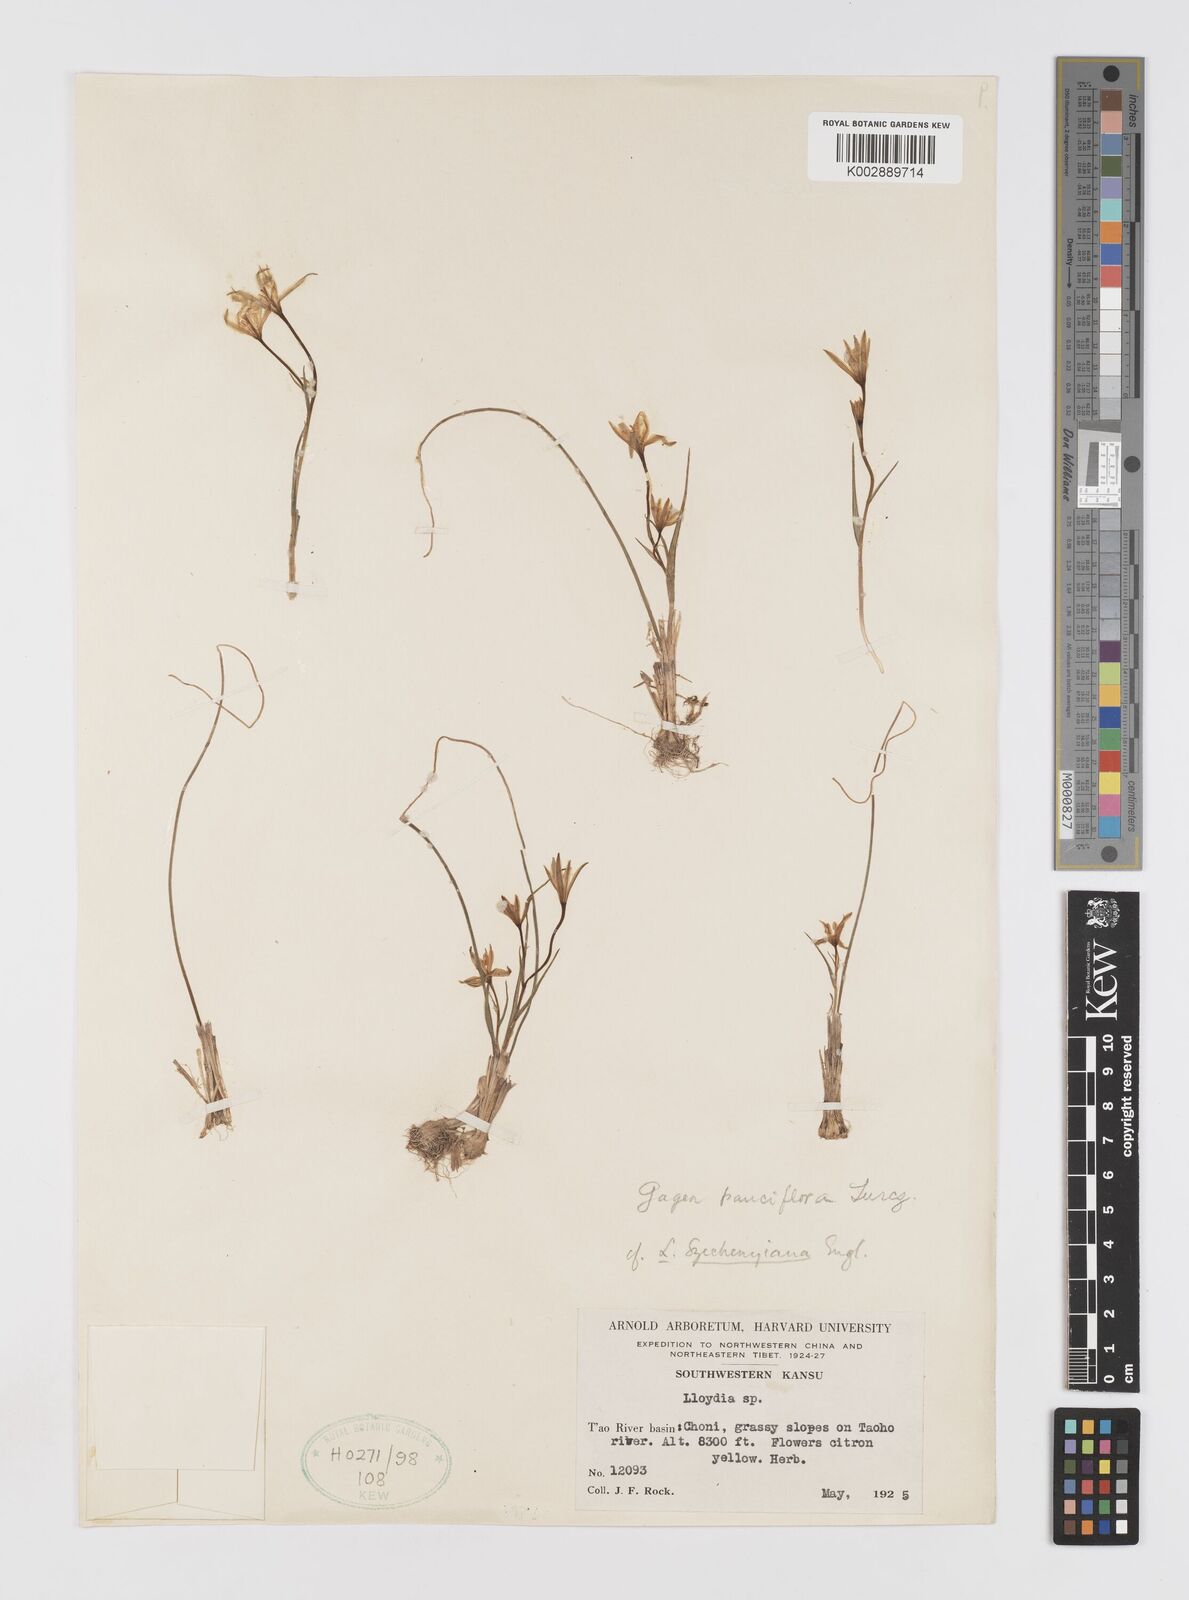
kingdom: Plantae
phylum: Tracheophyta
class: Liliopsida
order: Liliales
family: Liliaceae
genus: Gagea
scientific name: Gagea lutea
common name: Yellow star-of-bethlehem
